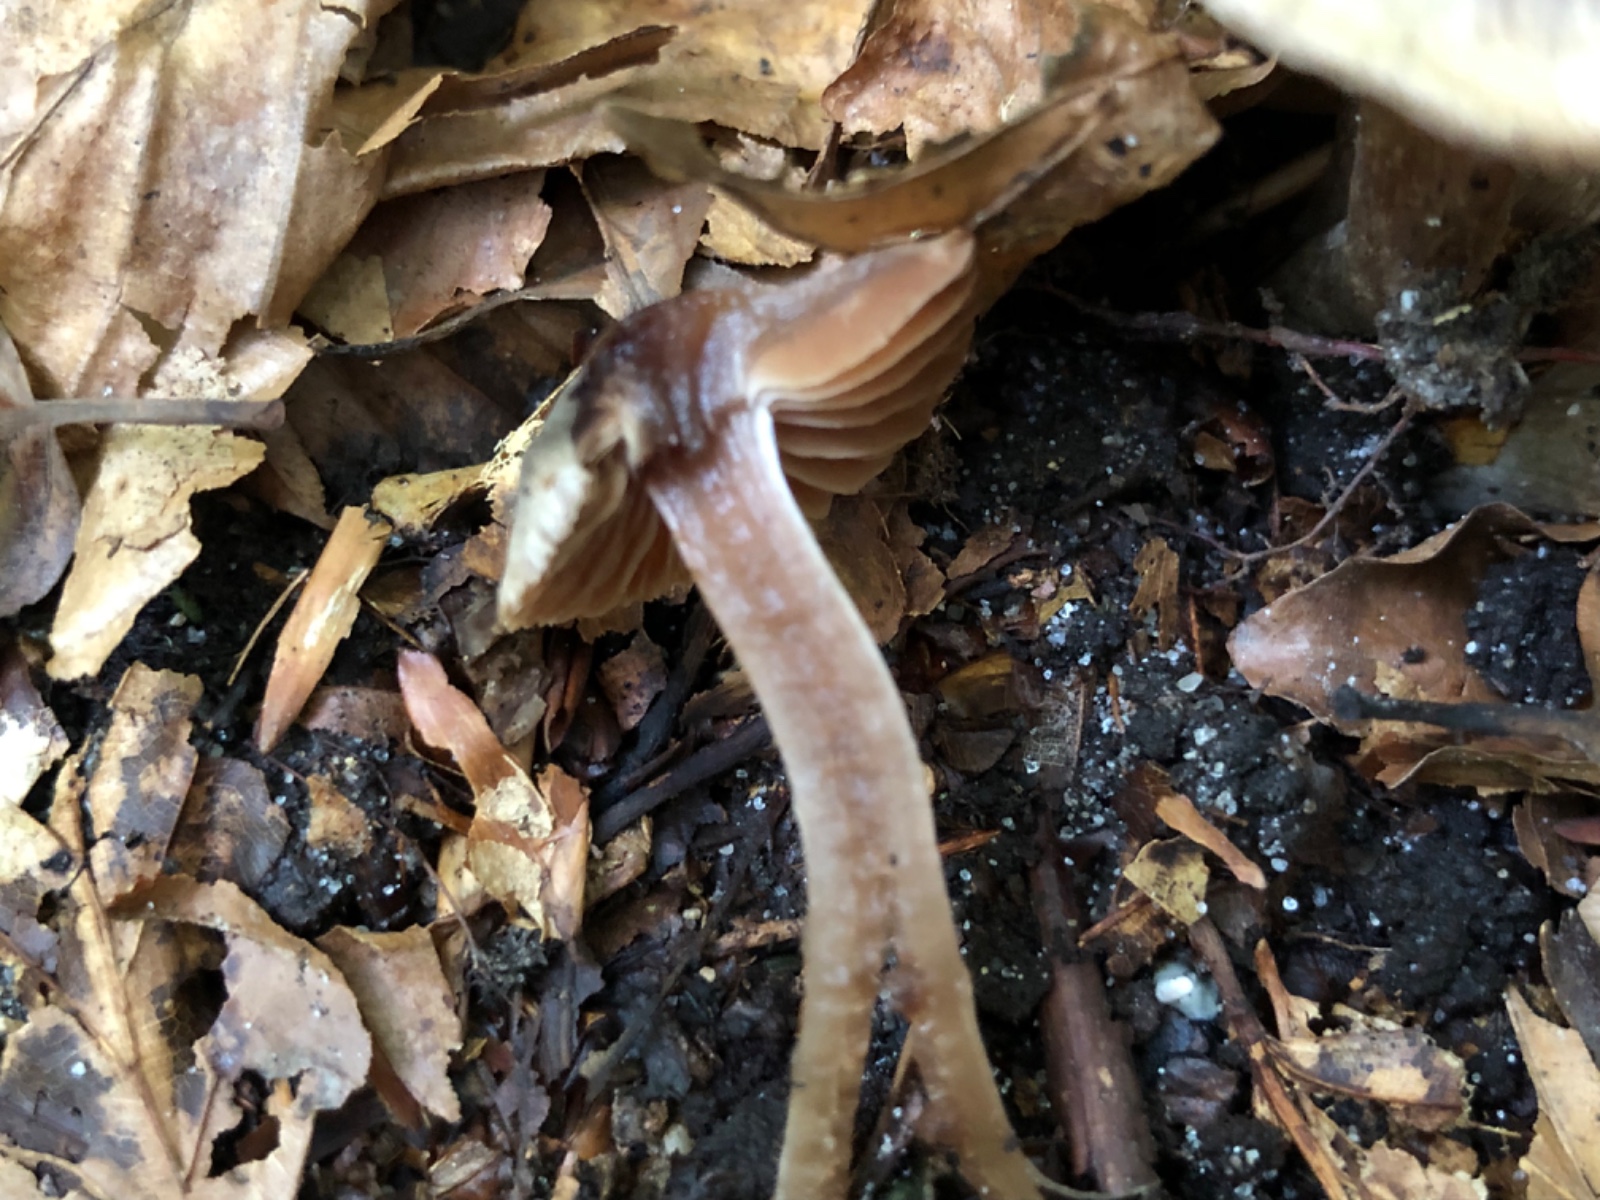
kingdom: Fungi
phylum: Basidiomycota
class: Agaricomycetes
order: Agaricales
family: Cortinariaceae
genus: Cortinarius
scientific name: Cortinarius
